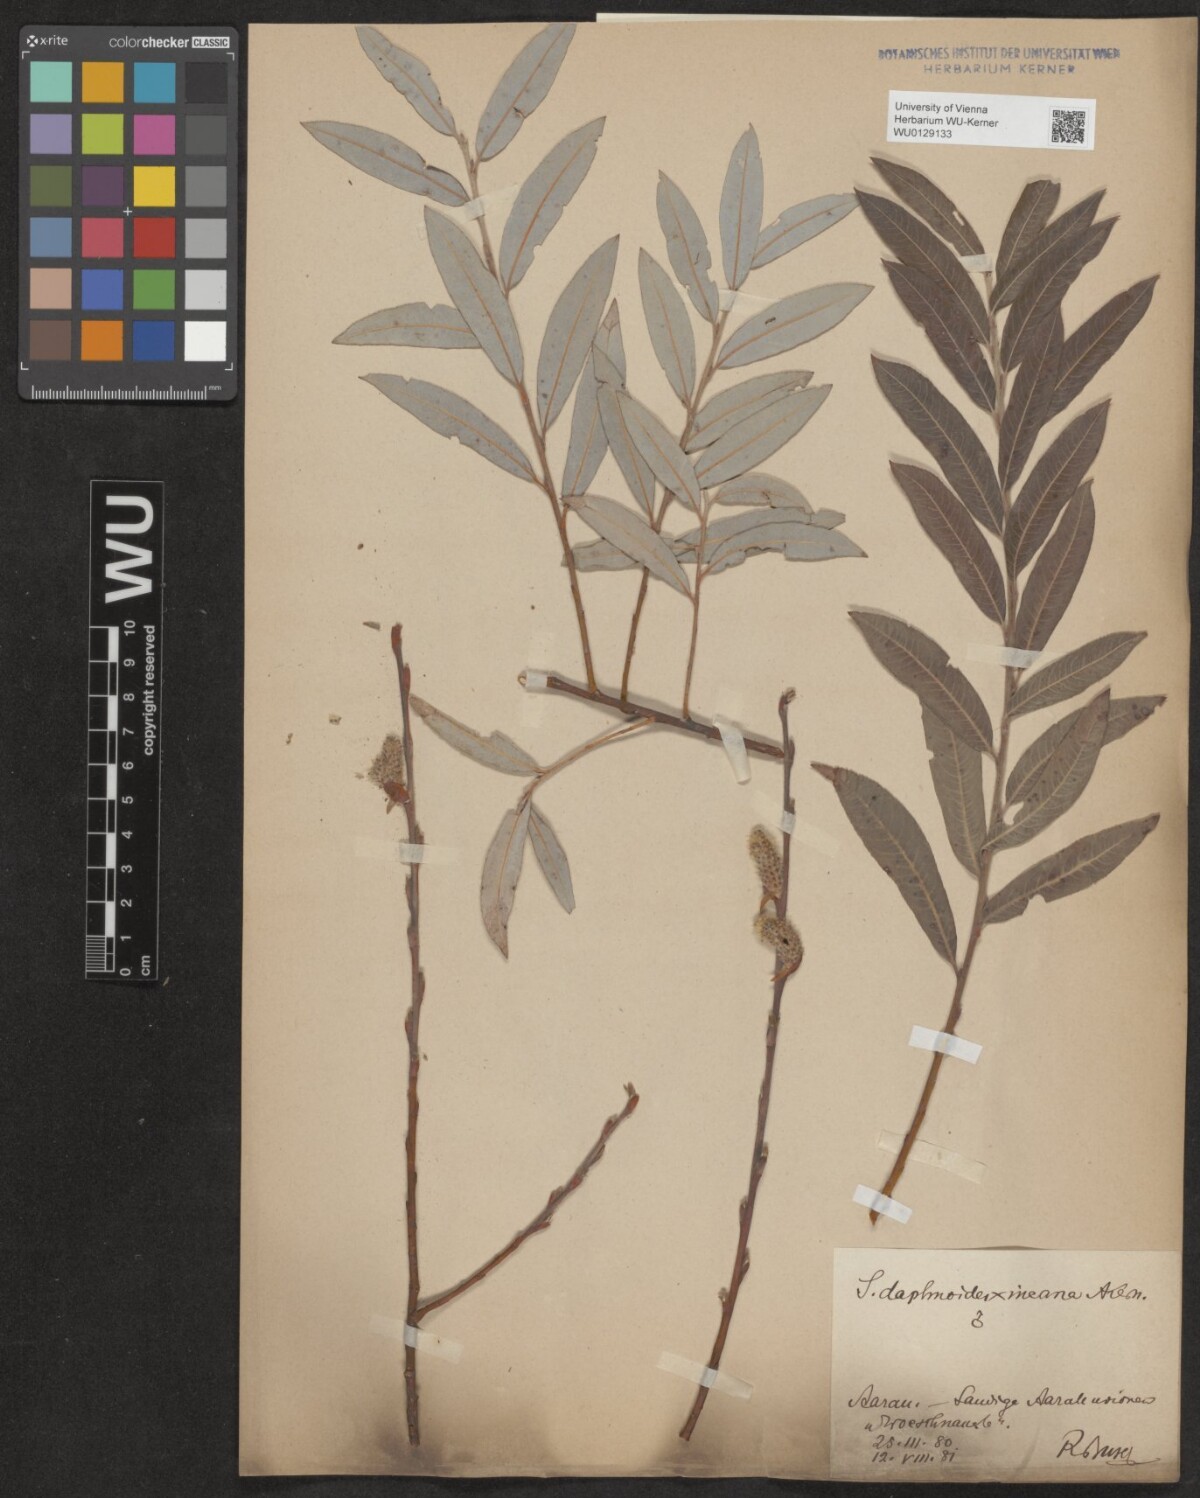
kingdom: Plantae
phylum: Tracheophyta
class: Magnoliopsida
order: Malpighiales
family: Salicaceae
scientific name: Salicaceae
